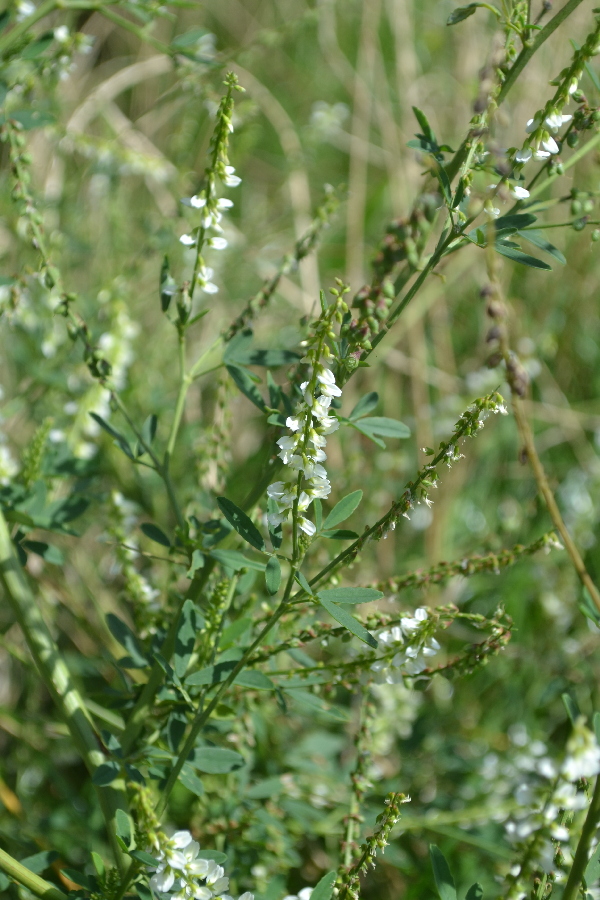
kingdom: Plantae
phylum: Tracheophyta
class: Magnoliopsida
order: Fabales
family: Fabaceae
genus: Melilotus
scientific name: Melilotus albus
